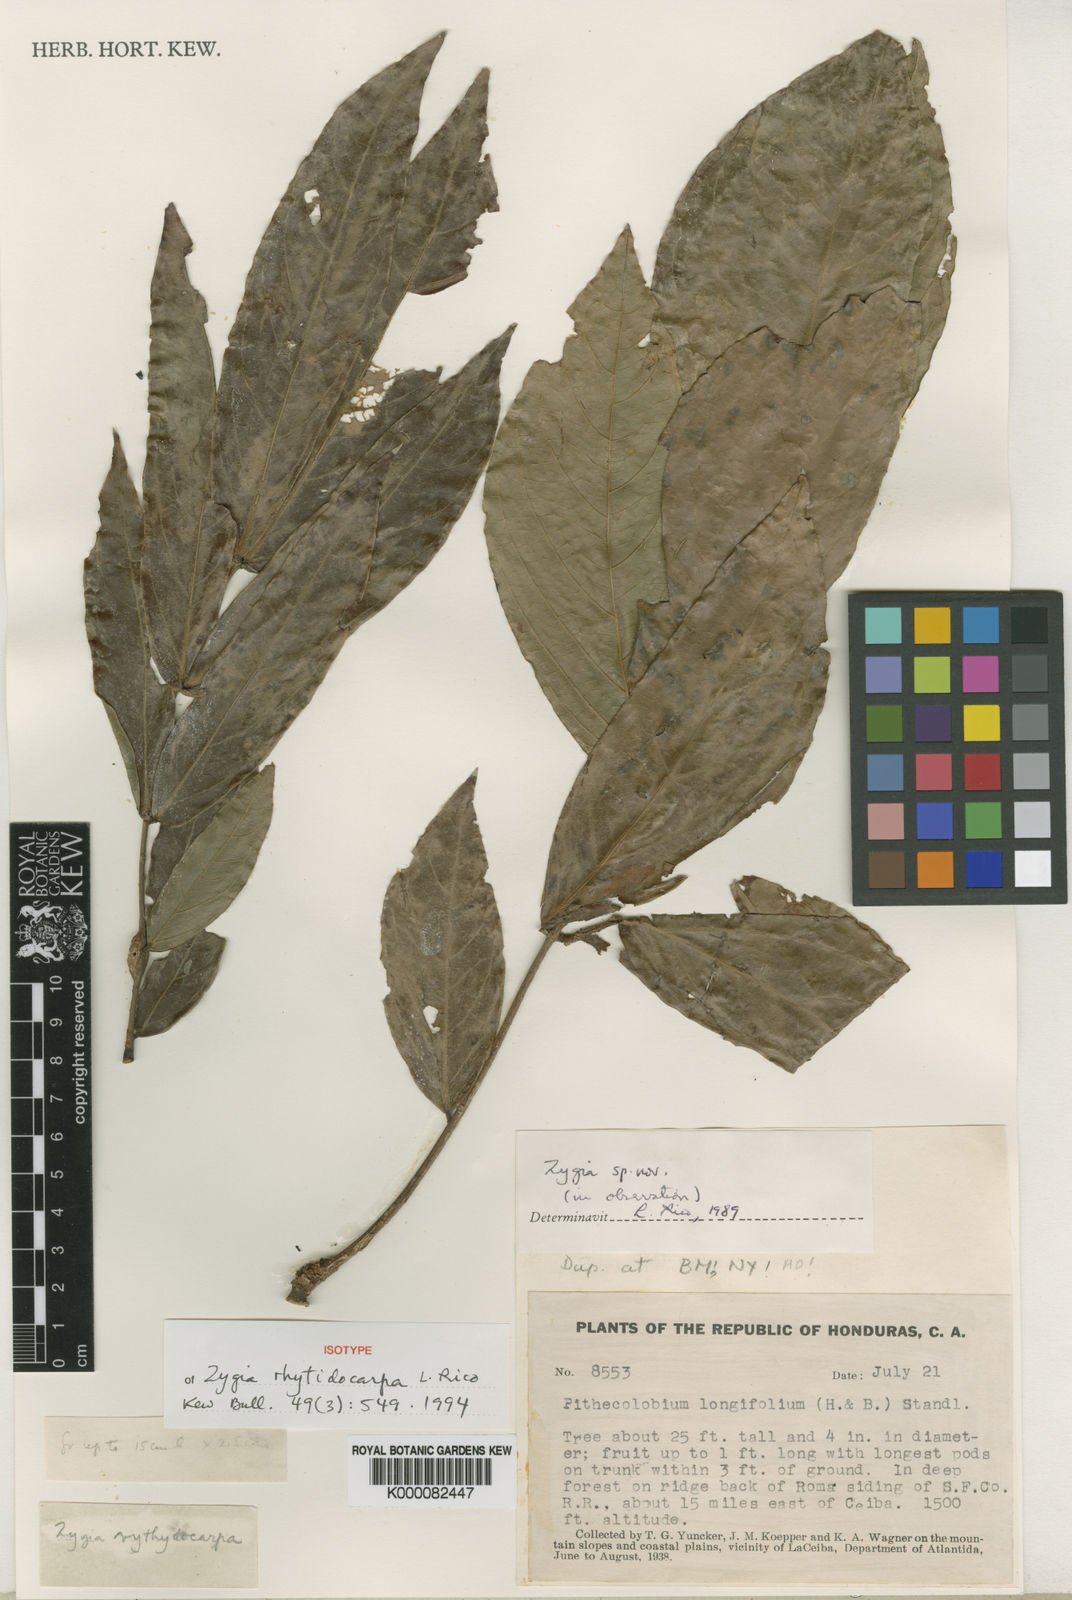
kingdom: Plantae
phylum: Tracheophyta
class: Magnoliopsida
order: Fabales
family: Fabaceae
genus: Zygia
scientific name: Zygia rhytidocarpa
